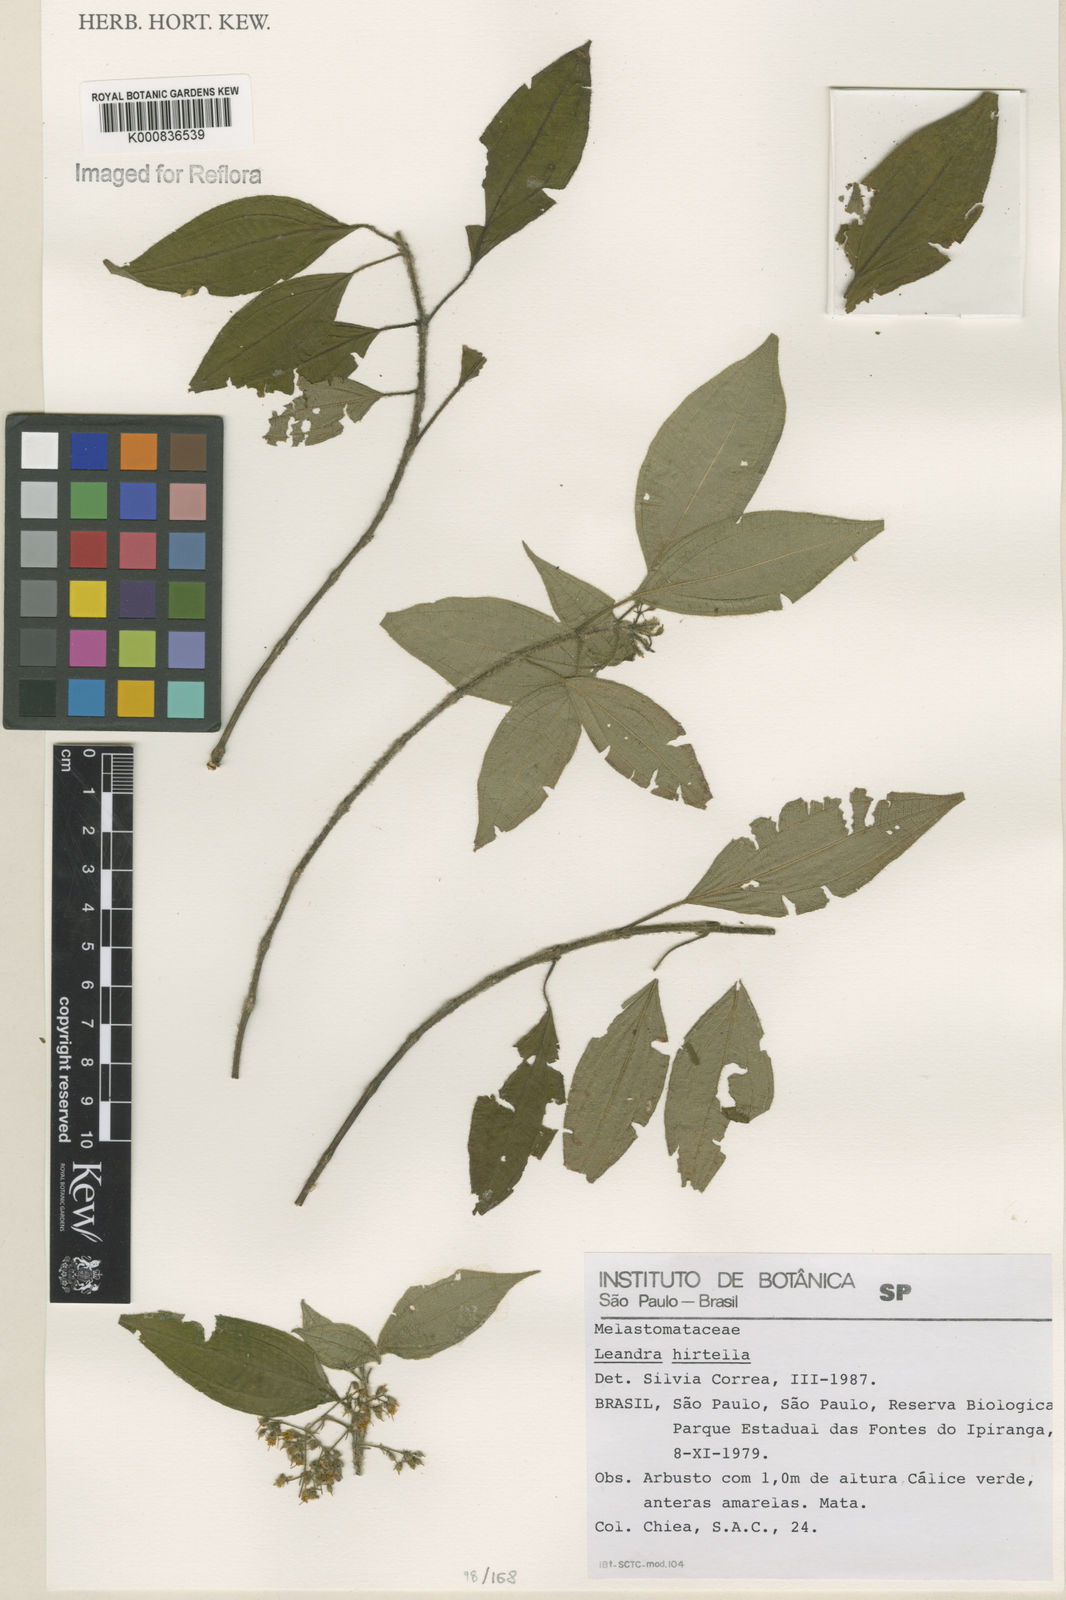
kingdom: Plantae
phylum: Tracheophyta
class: Magnoliopsida
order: Myrtales
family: Melastomataceae
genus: Miconia
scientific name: Miconia leahirtella
